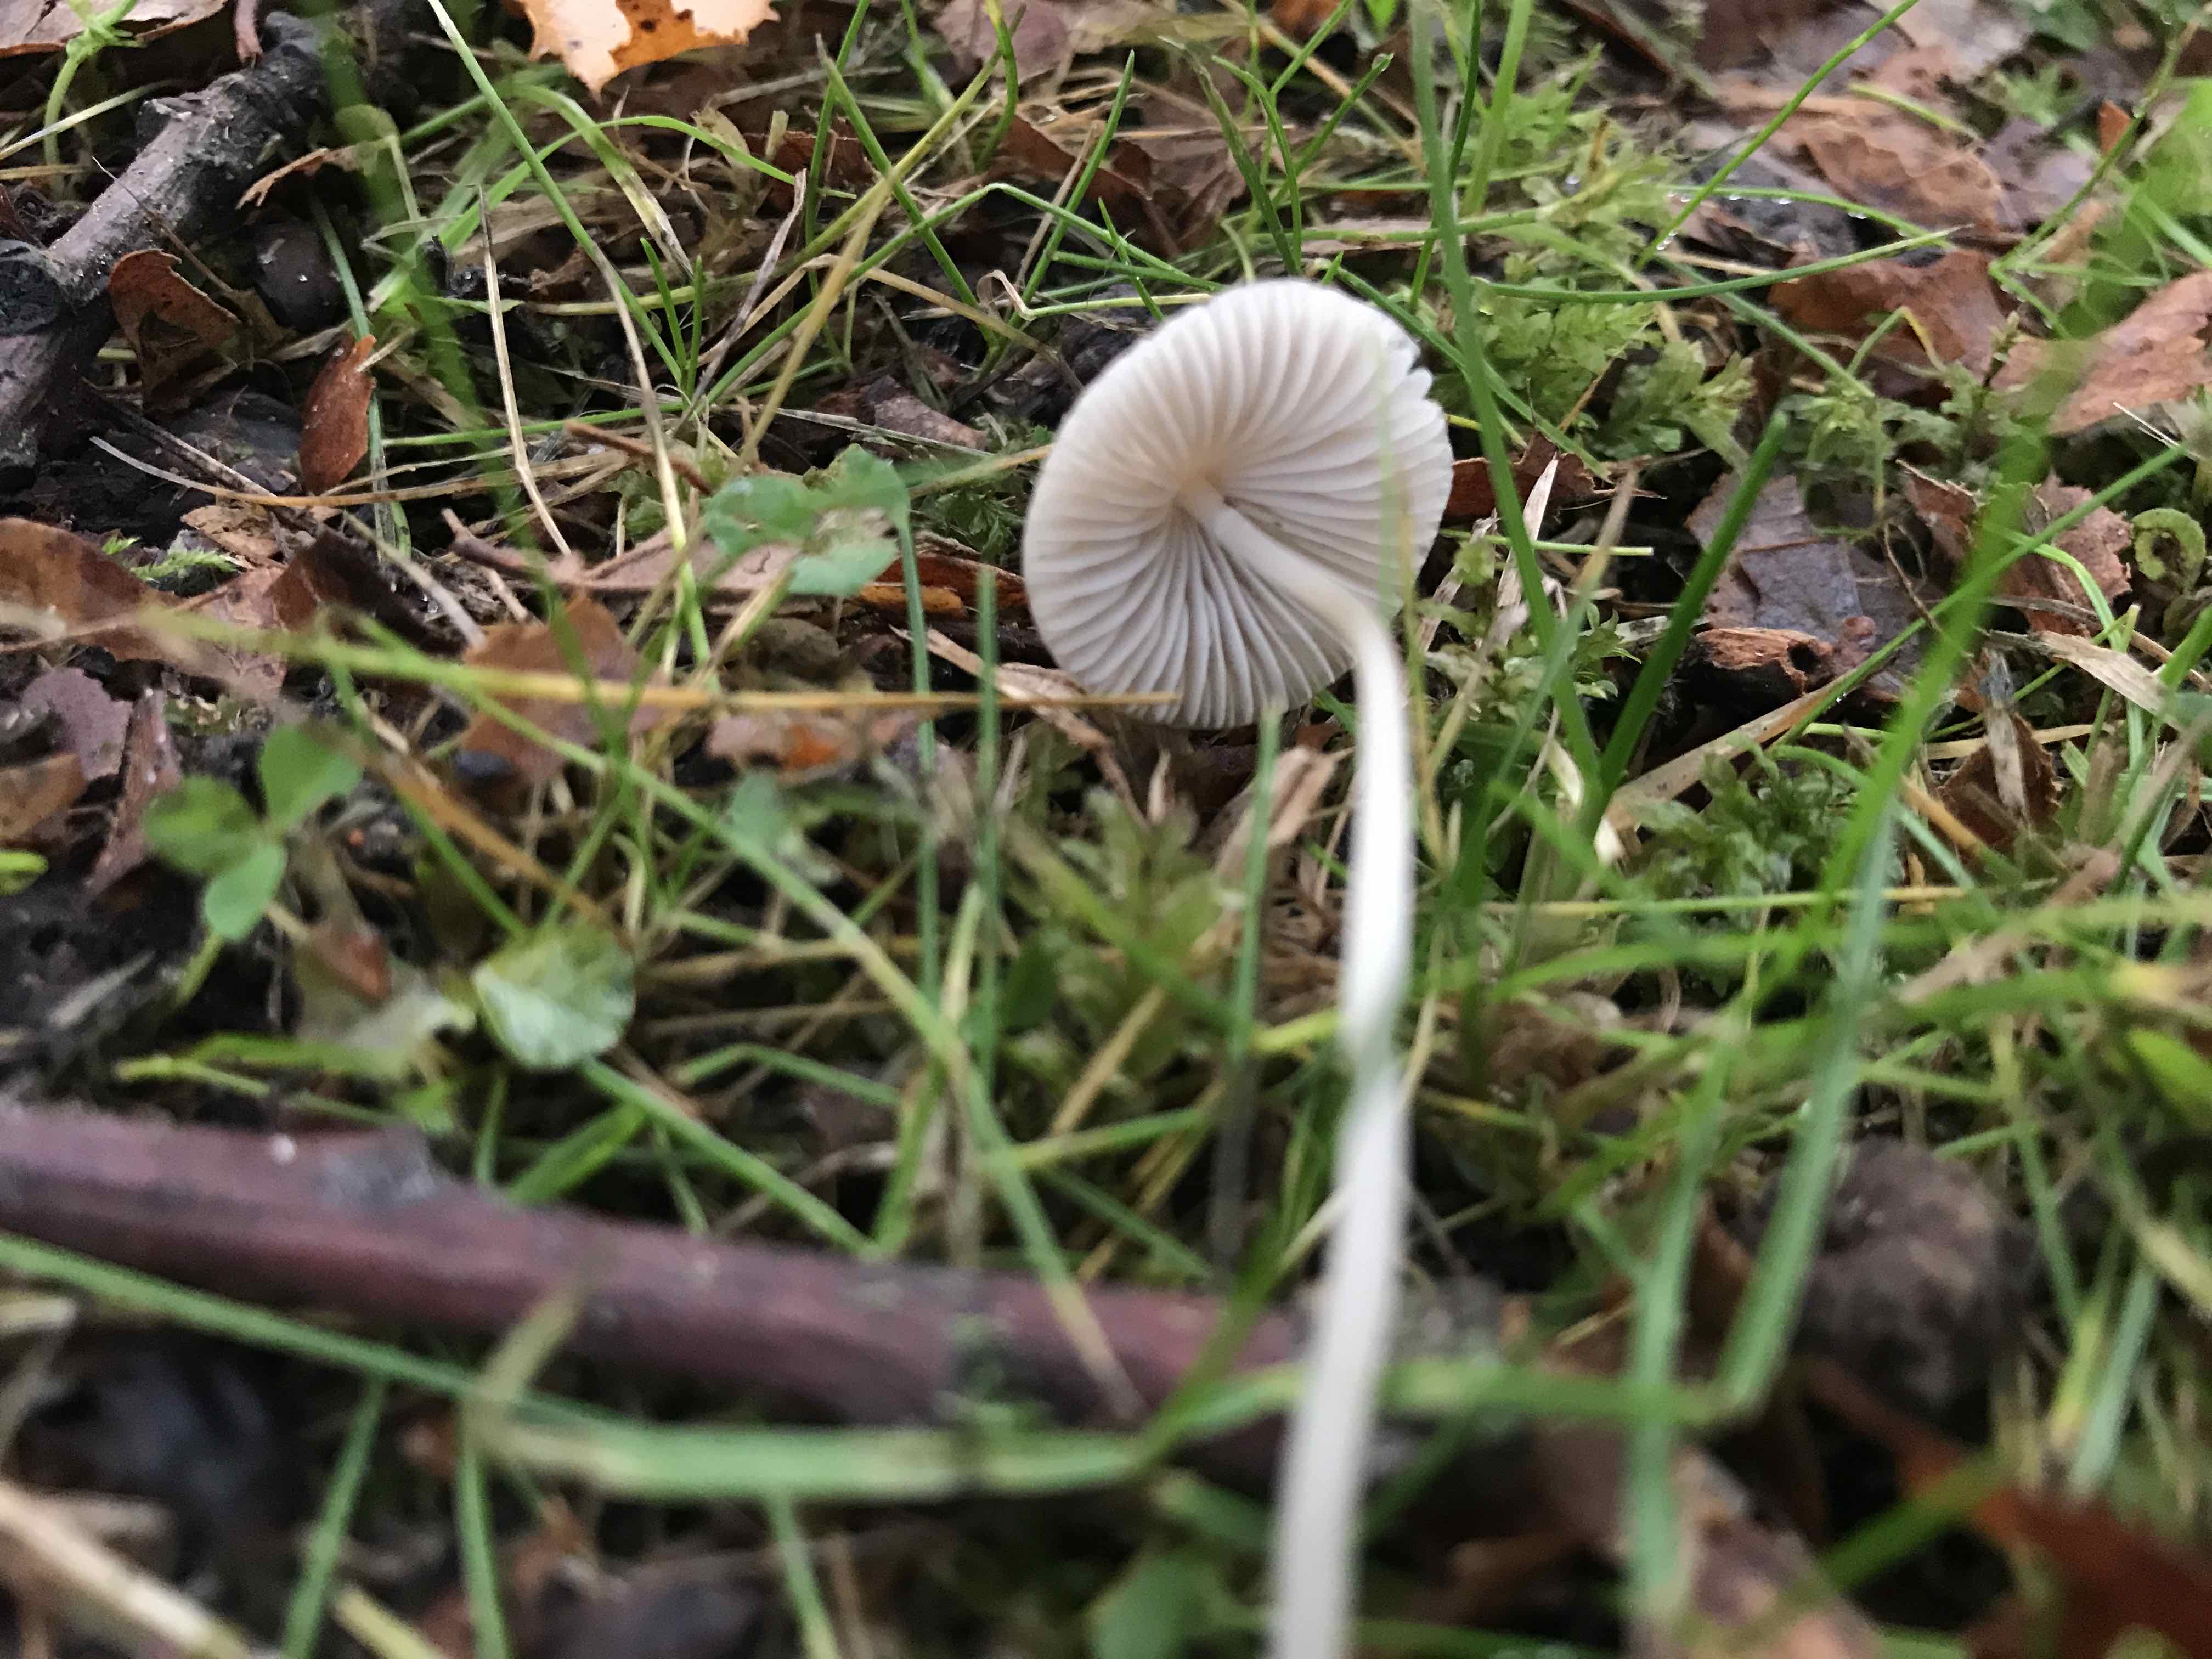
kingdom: Fungi
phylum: Basidiomycota
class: Agaricomycetes
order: Agaricales
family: Mycenaceae
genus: Mycena
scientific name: Mycena vitilis
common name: blankstokket huesvamp
